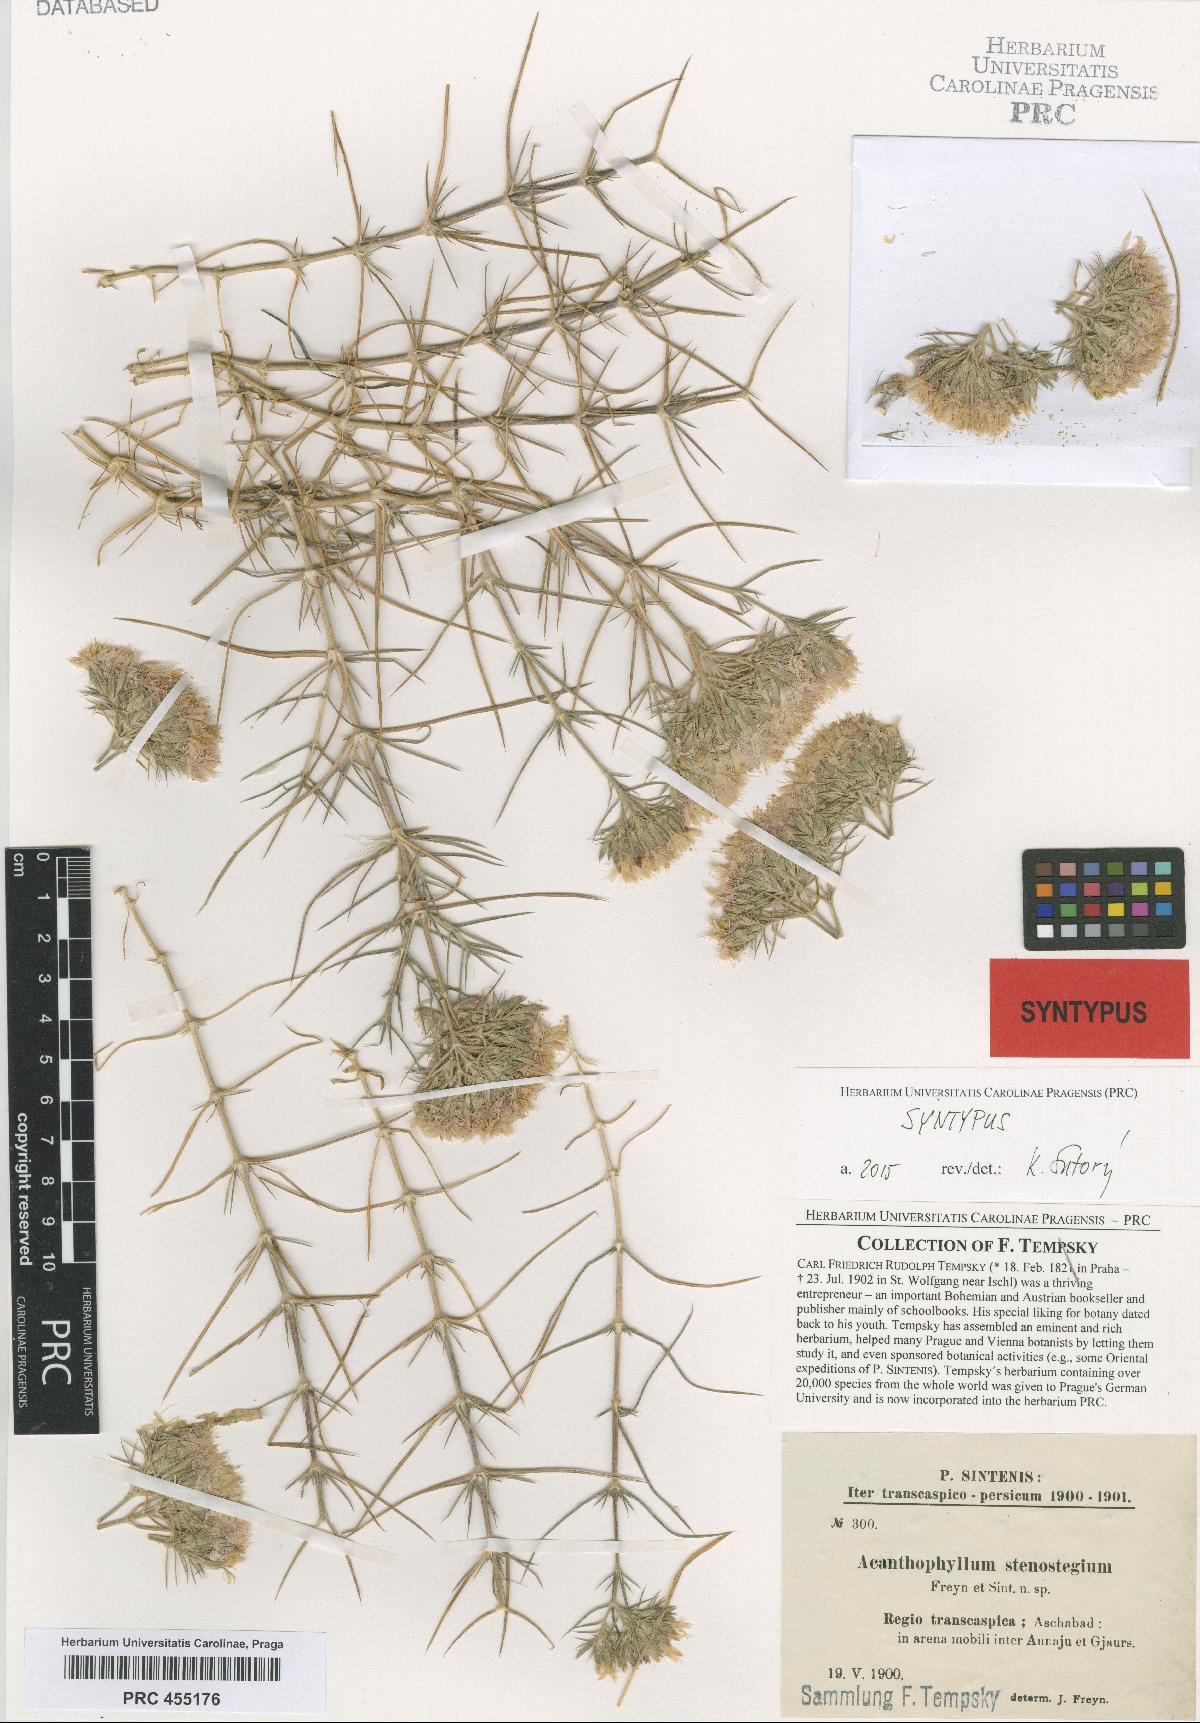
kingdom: Plantae
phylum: Tracheophyta
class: Magnoliopsida
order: Caryophyllales
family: Caryophyllaceae
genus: Acanthophyllum
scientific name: Acanthophyllum stenostegium
